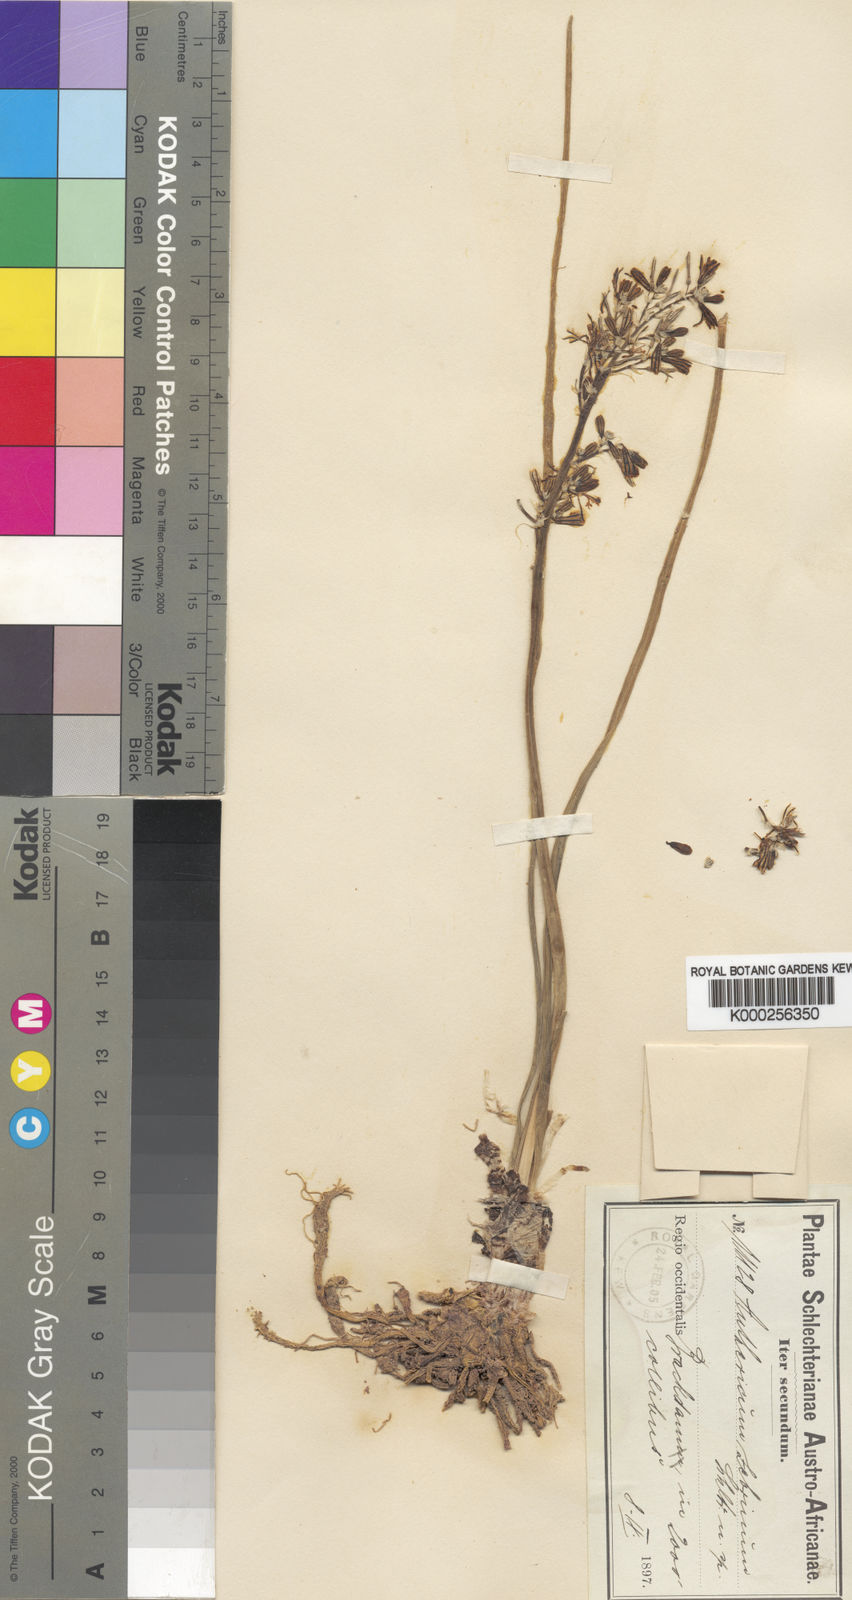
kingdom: Plantae
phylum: Tracheophyta
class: Liliopsida
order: Asparagales
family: Asphodelaceae
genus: Trachyandra
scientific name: Trachyandra zebrina
